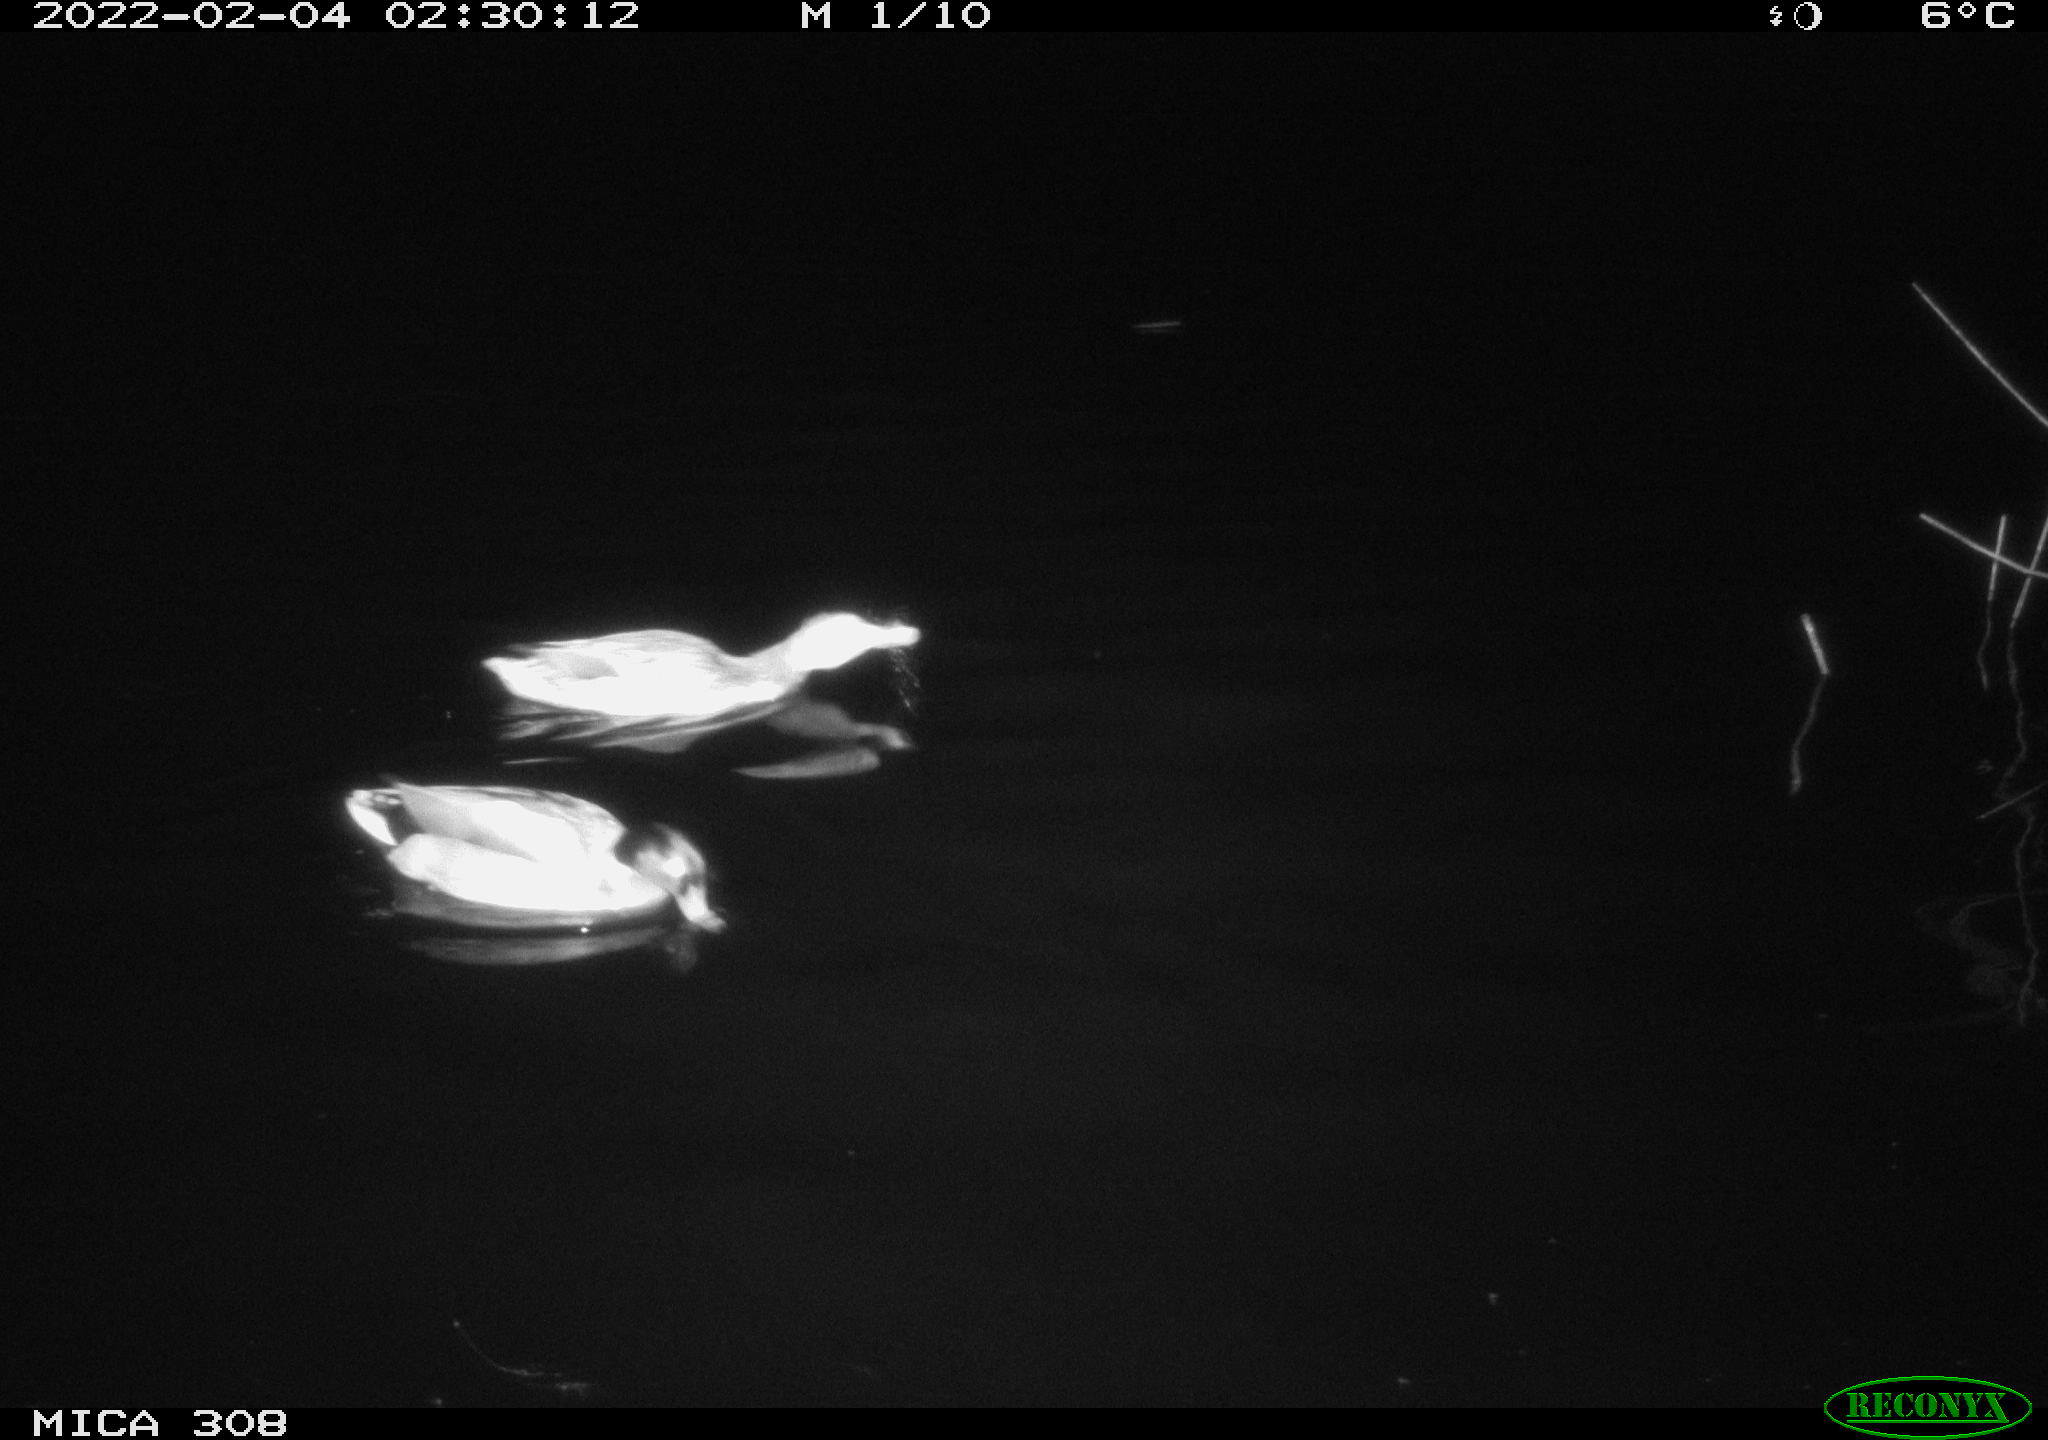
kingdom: Animalia
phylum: Chordata
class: Aves
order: Anseriformes
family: Anatidae
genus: Anas
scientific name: Anas platyrhynchos
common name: Mallard
